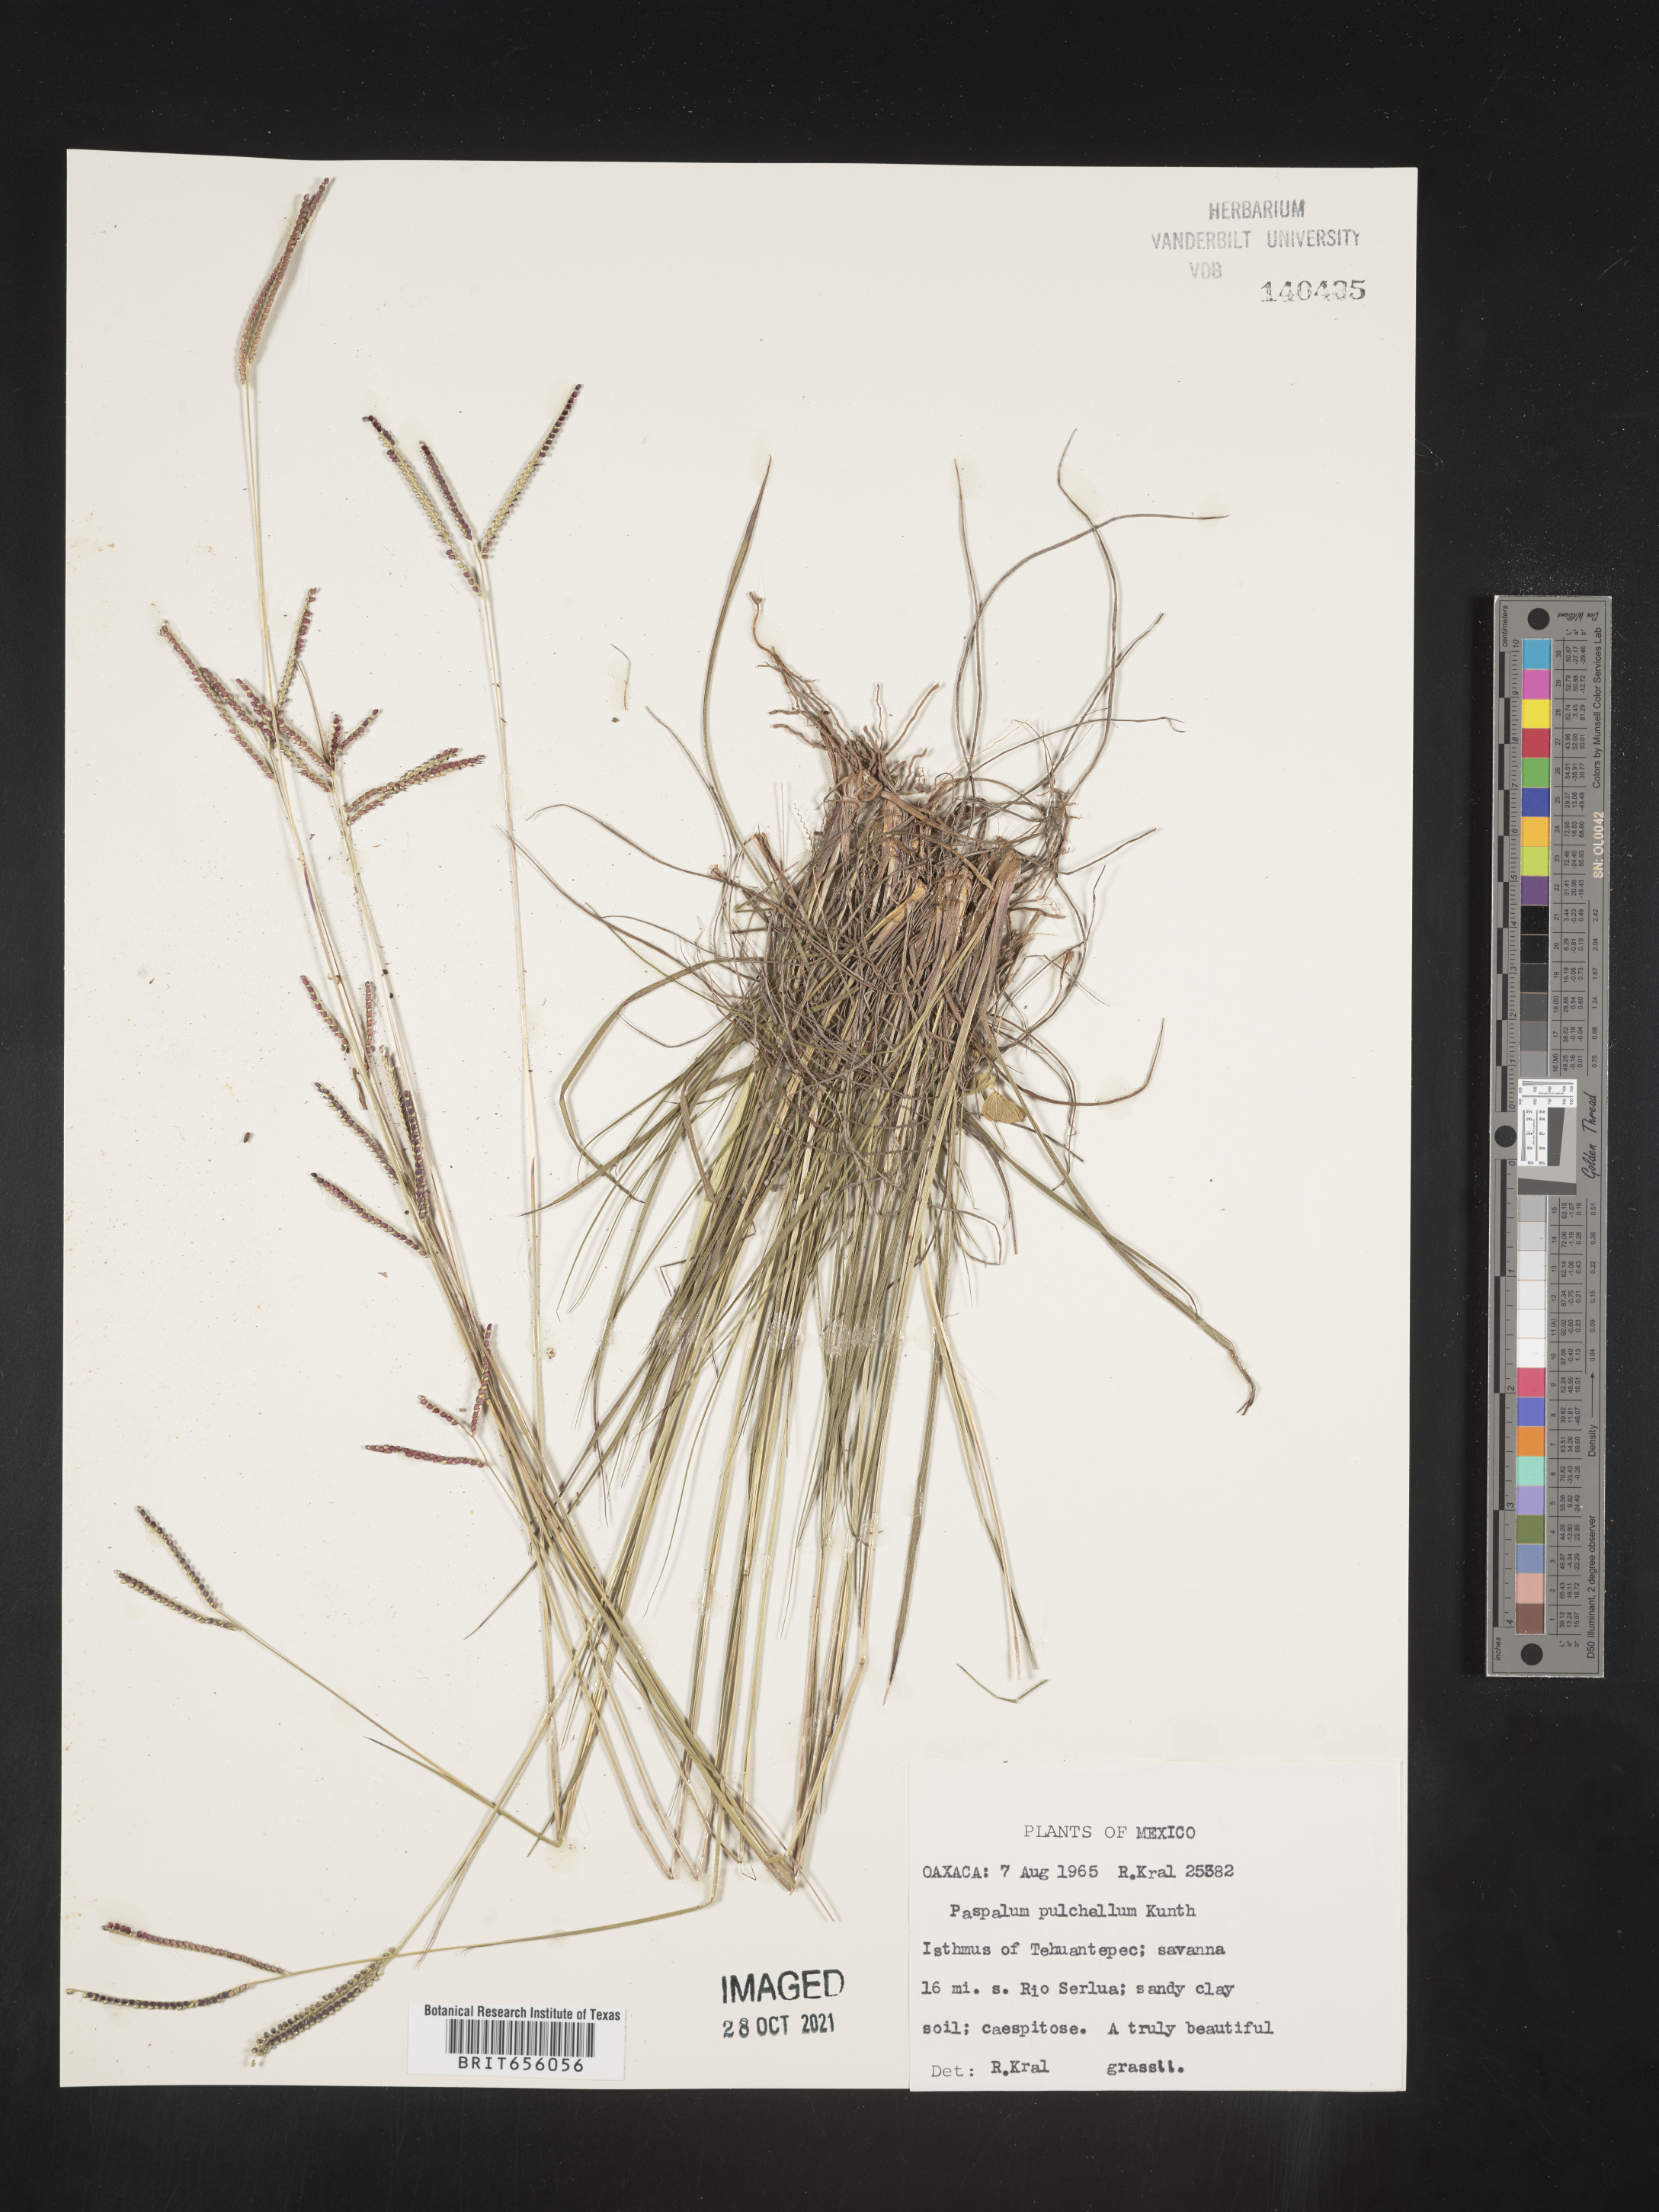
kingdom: Plantae
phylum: Tracheophyta
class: Liliopsida
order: Poales
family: Poaceae
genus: Paspalum
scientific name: Paspalum
